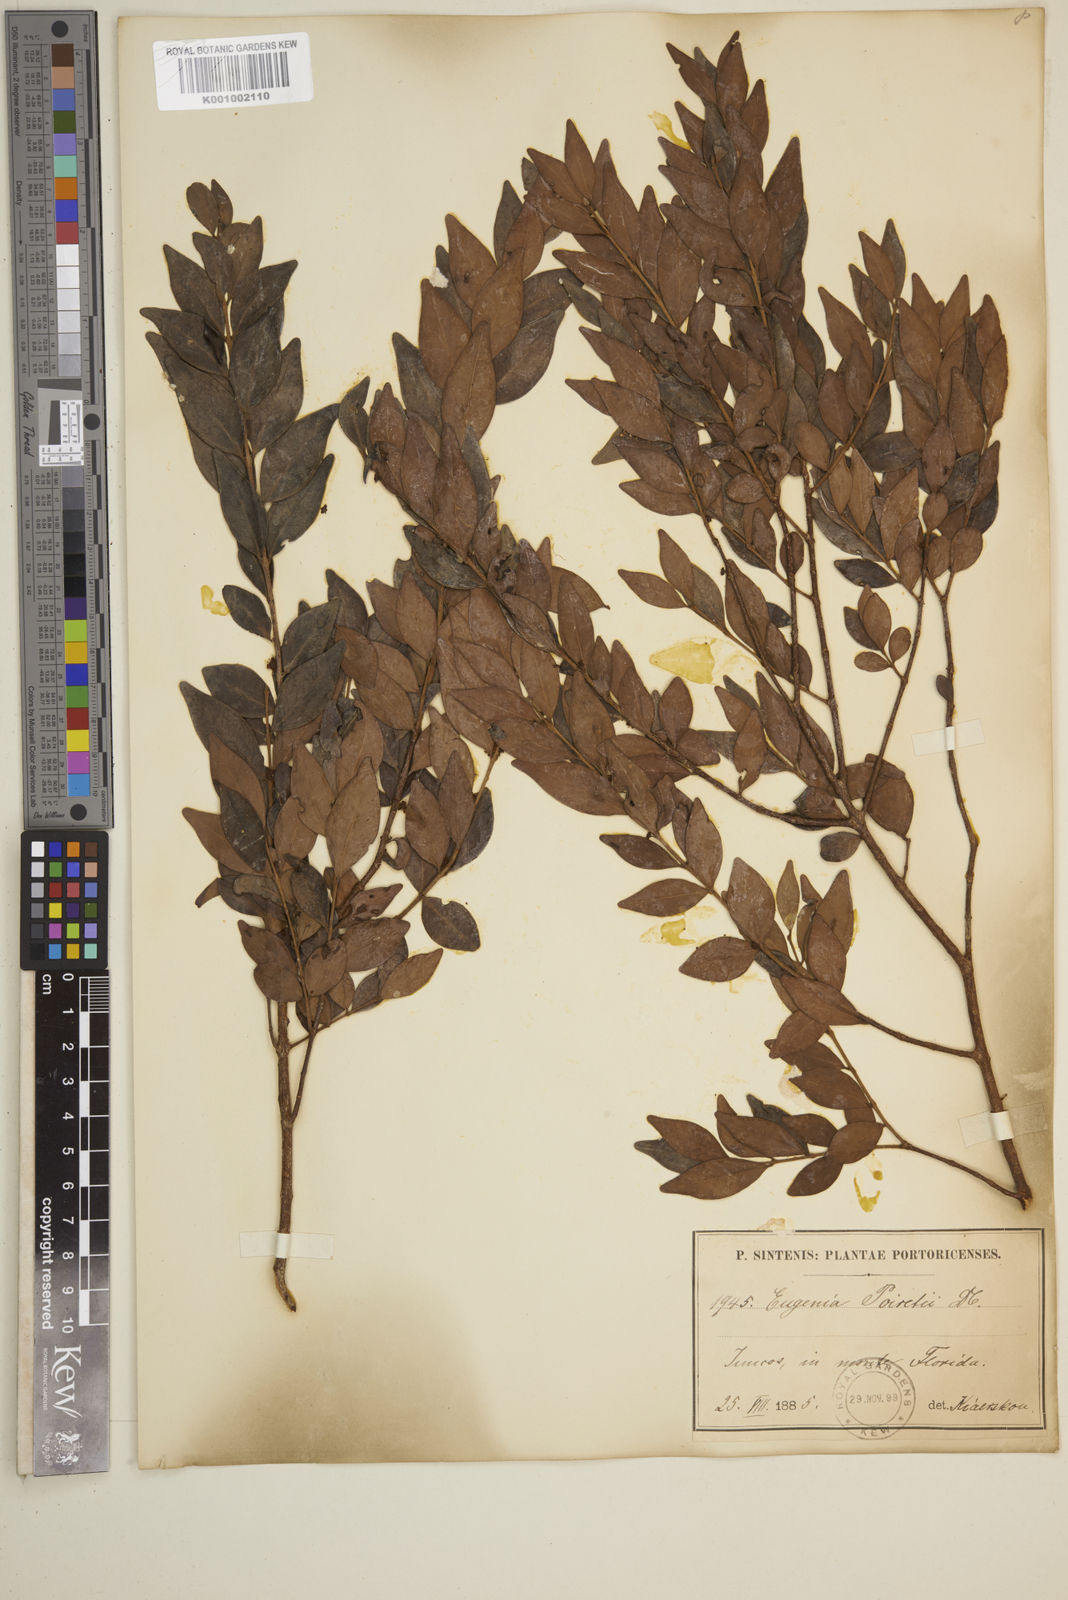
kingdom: Plantae
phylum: Tracheophyta
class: Magnoliopsida
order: Myrtales
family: Myrtaceae
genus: Eugenia
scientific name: Eugenia monticola
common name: Birds berry
